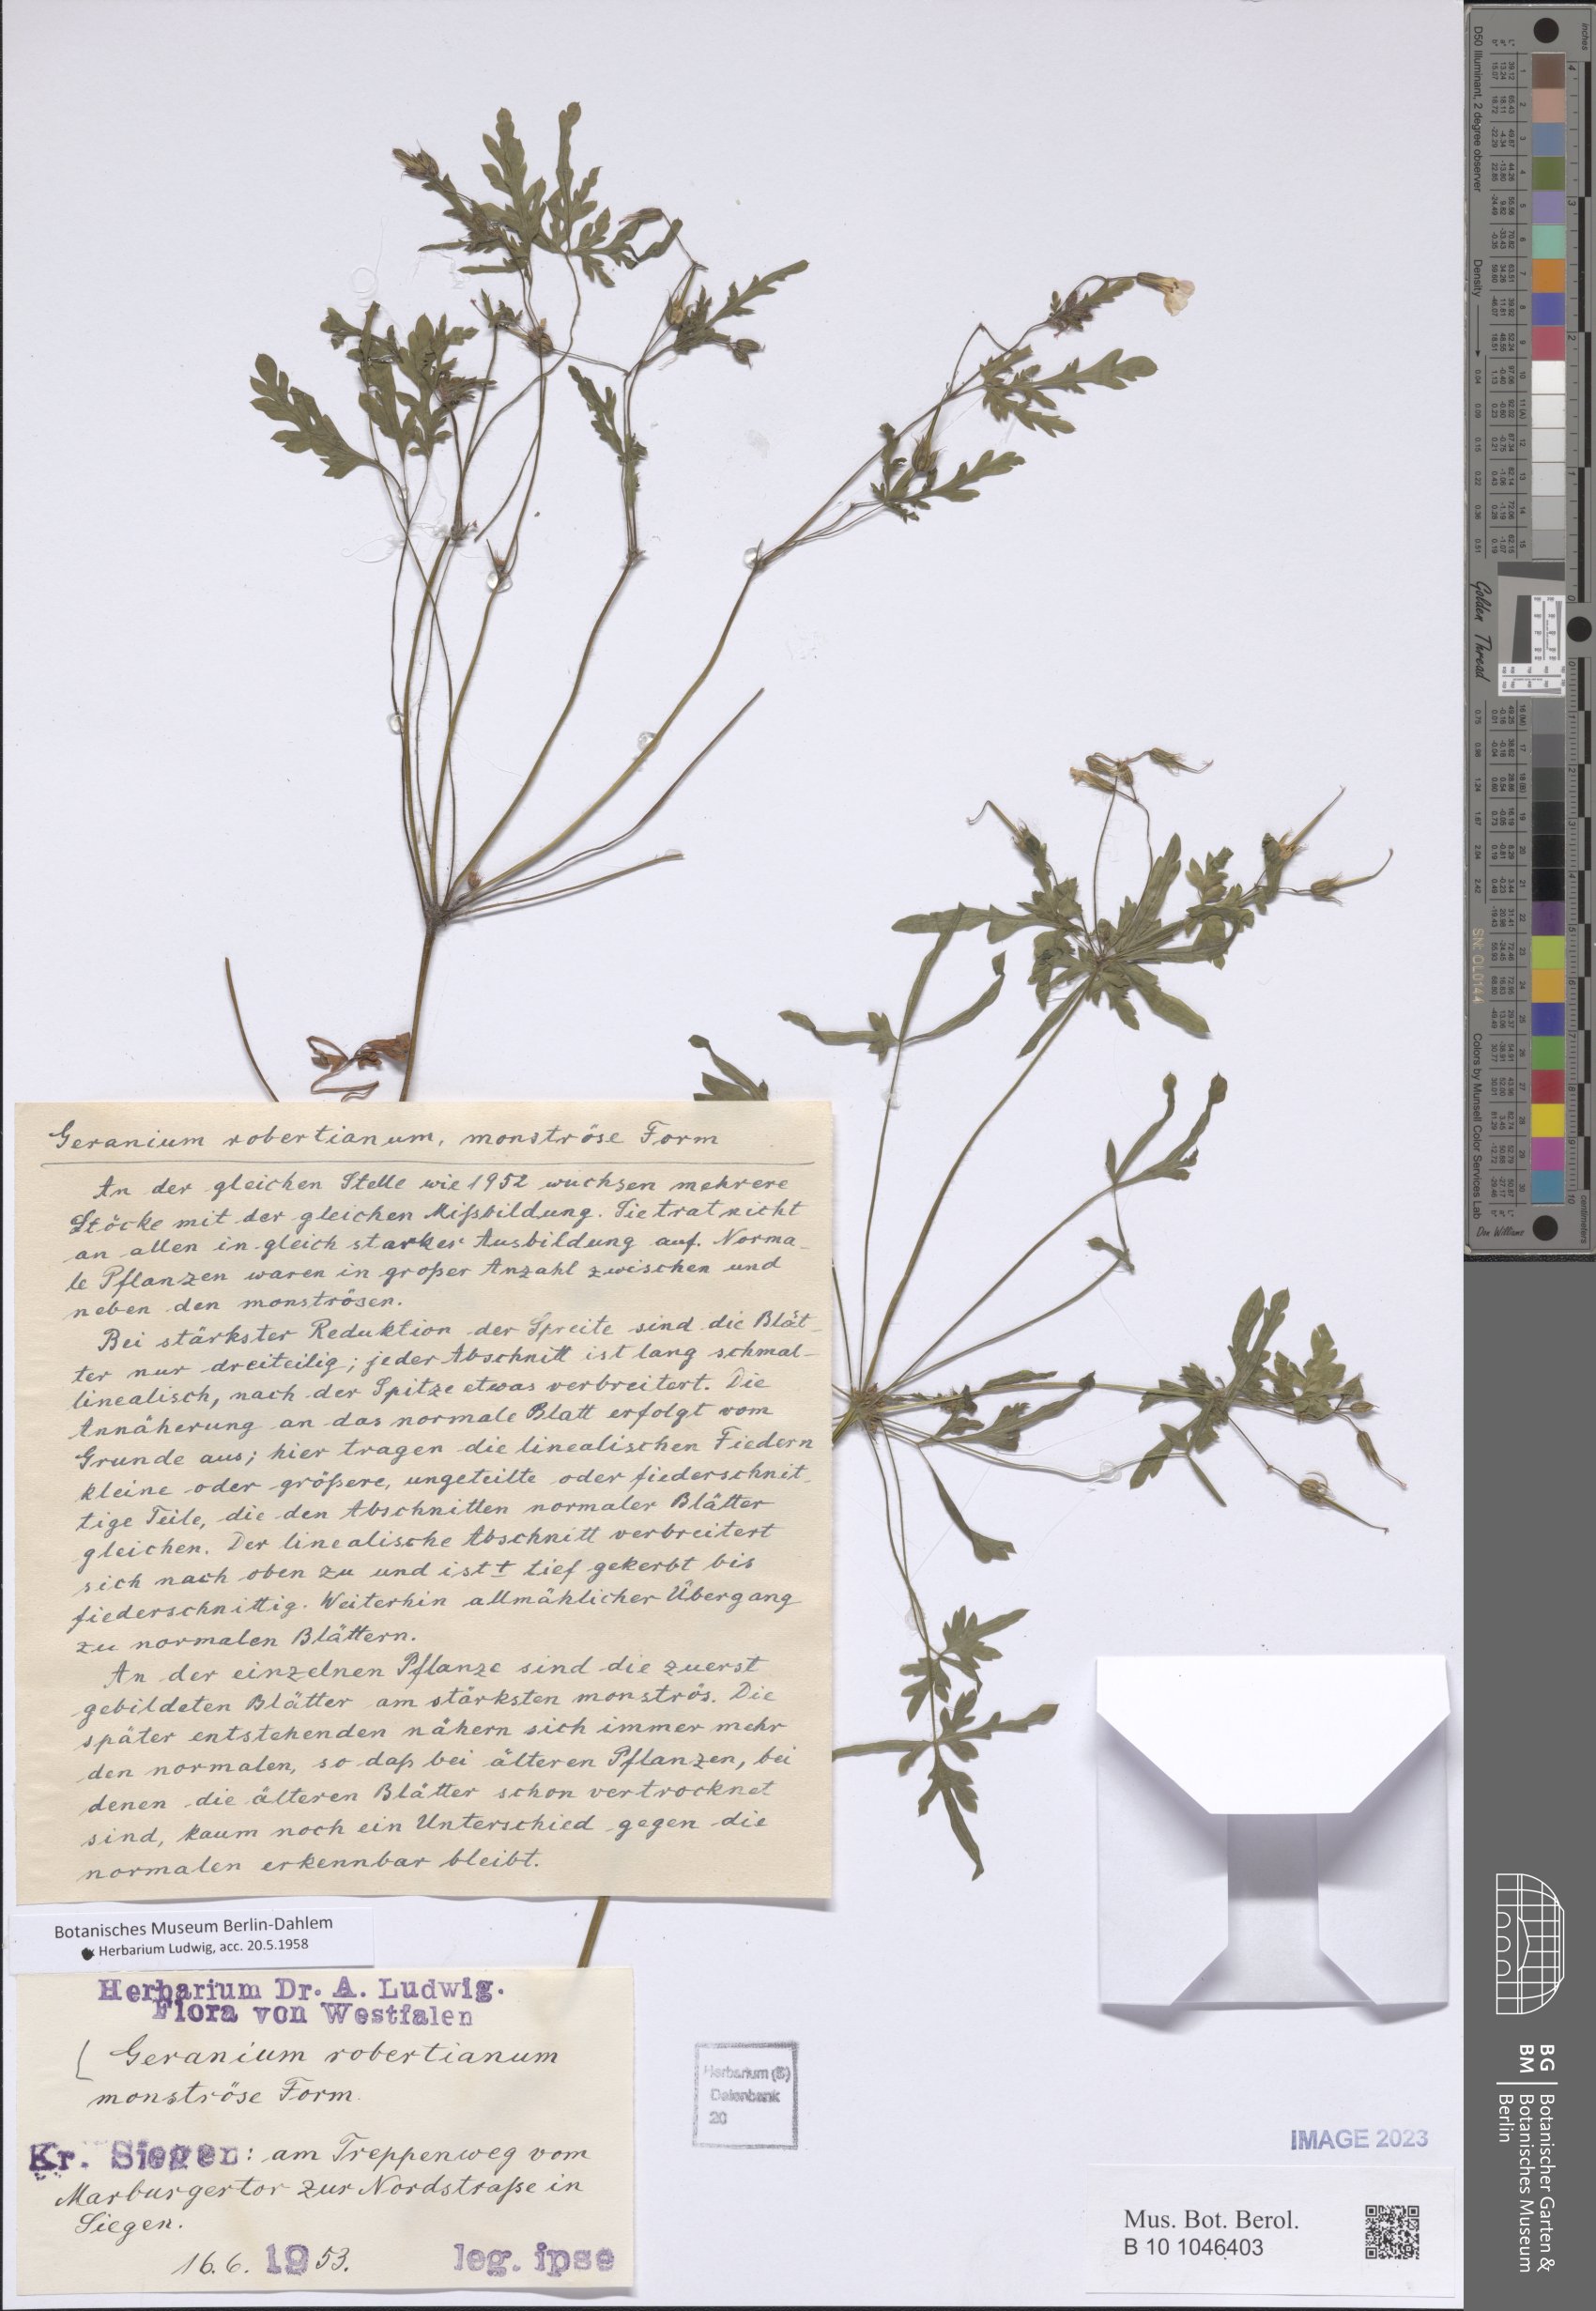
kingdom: Plantae
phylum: Tracheophyta
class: Magnoliopsida
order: Geraniales
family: Geraniaceae
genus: Geranium
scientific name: Geranium robertianum
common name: Herb-robert
